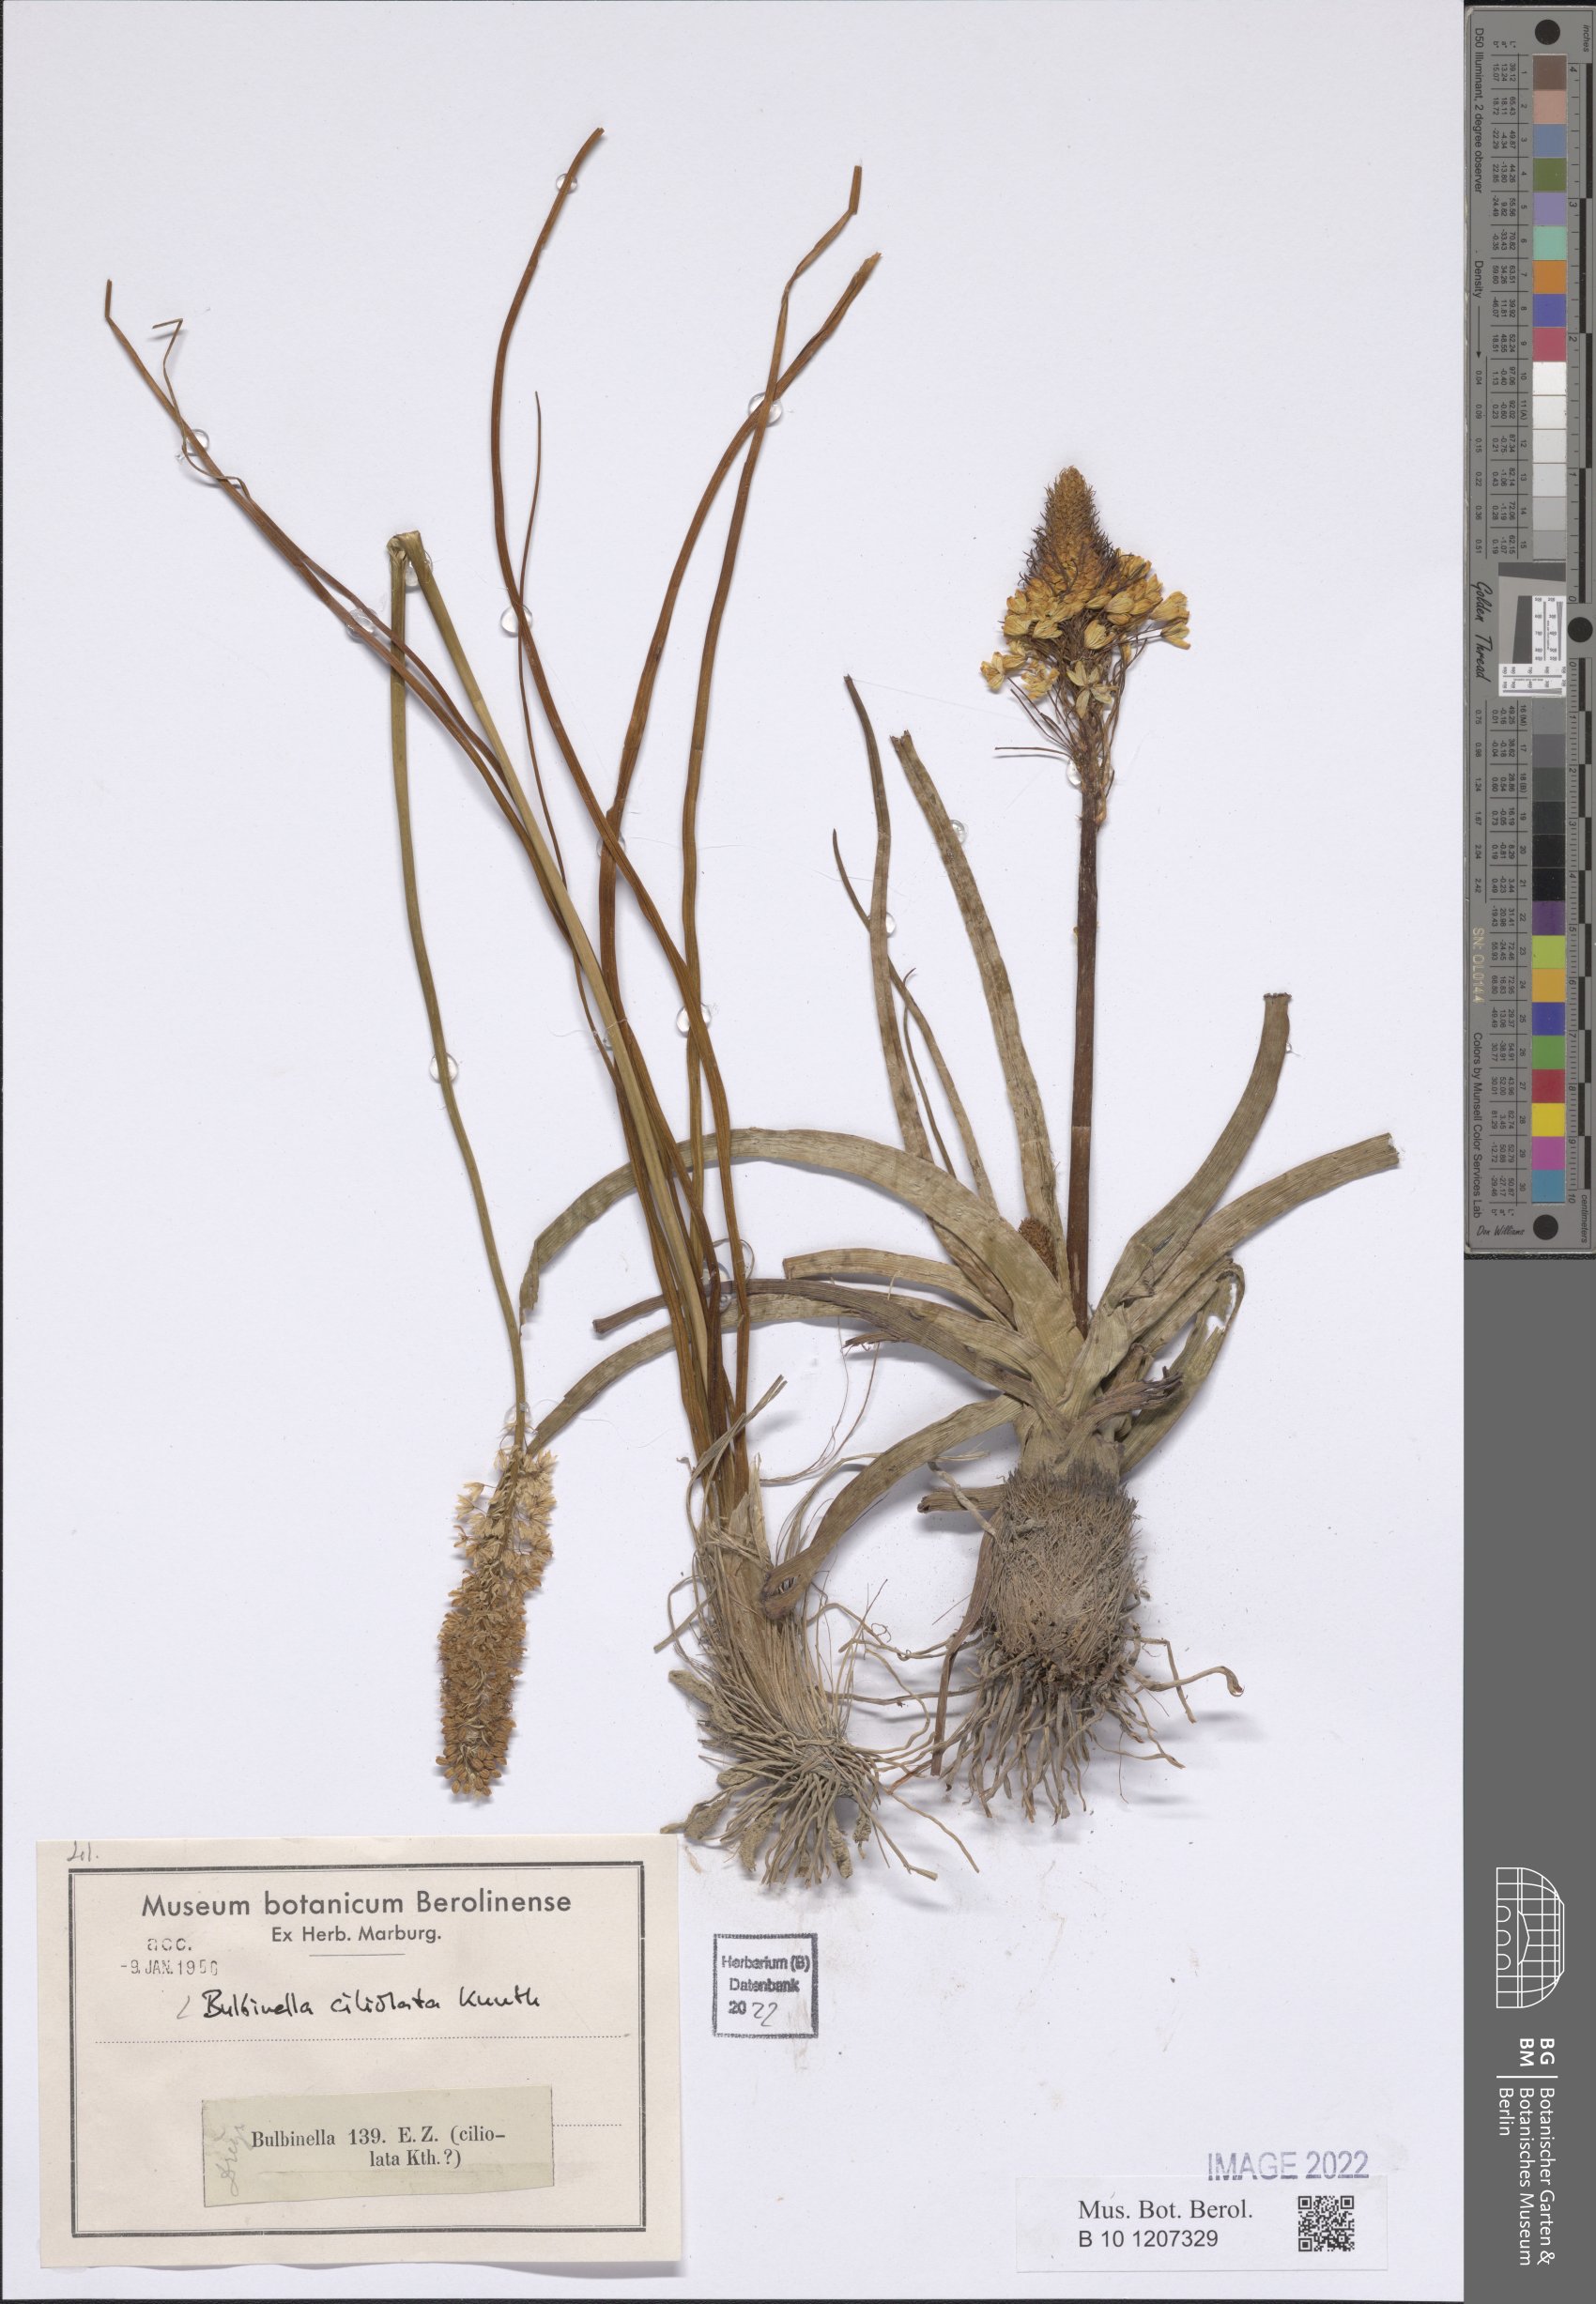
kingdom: Plantae
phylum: Tracheophyta
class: Liliopsida
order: Asparagales
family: Asphodelaceae
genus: Bulbinella
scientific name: Bulbinella ciliolata
